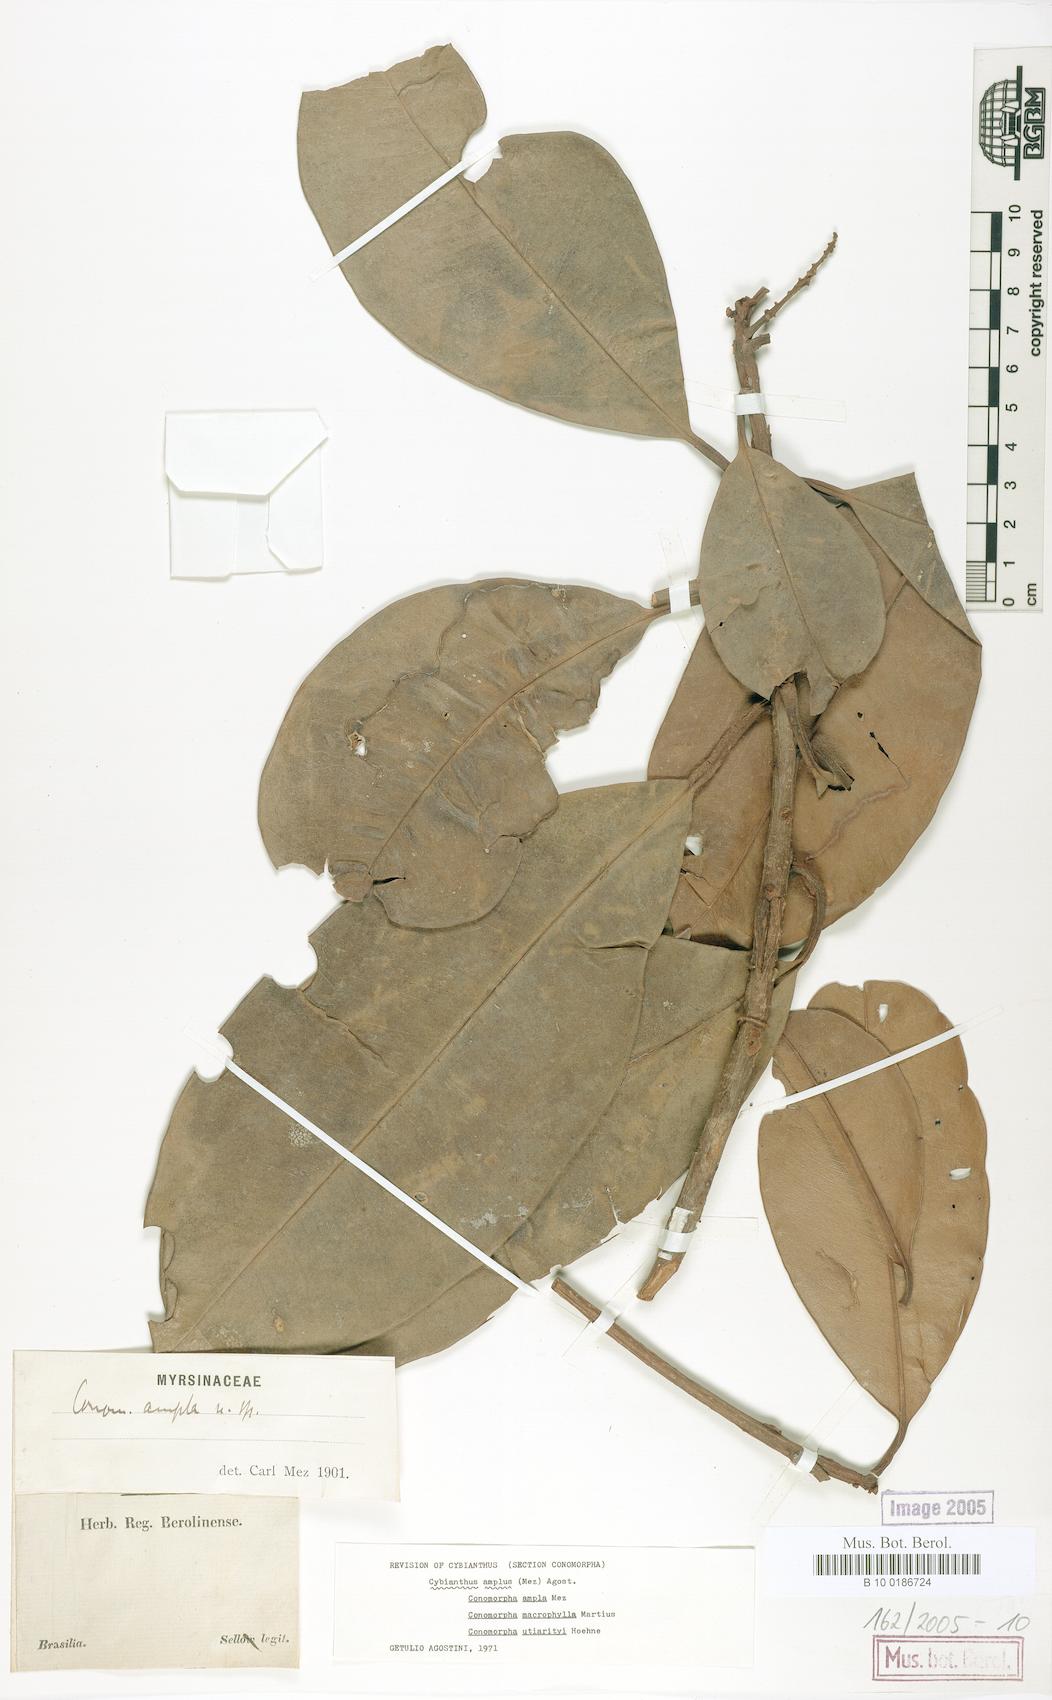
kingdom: Plantae
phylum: Tracheophyta
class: Magnoliopsida
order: Ericales
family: Primulaceae
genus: Cybianthus
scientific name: Cybianthus amplus
